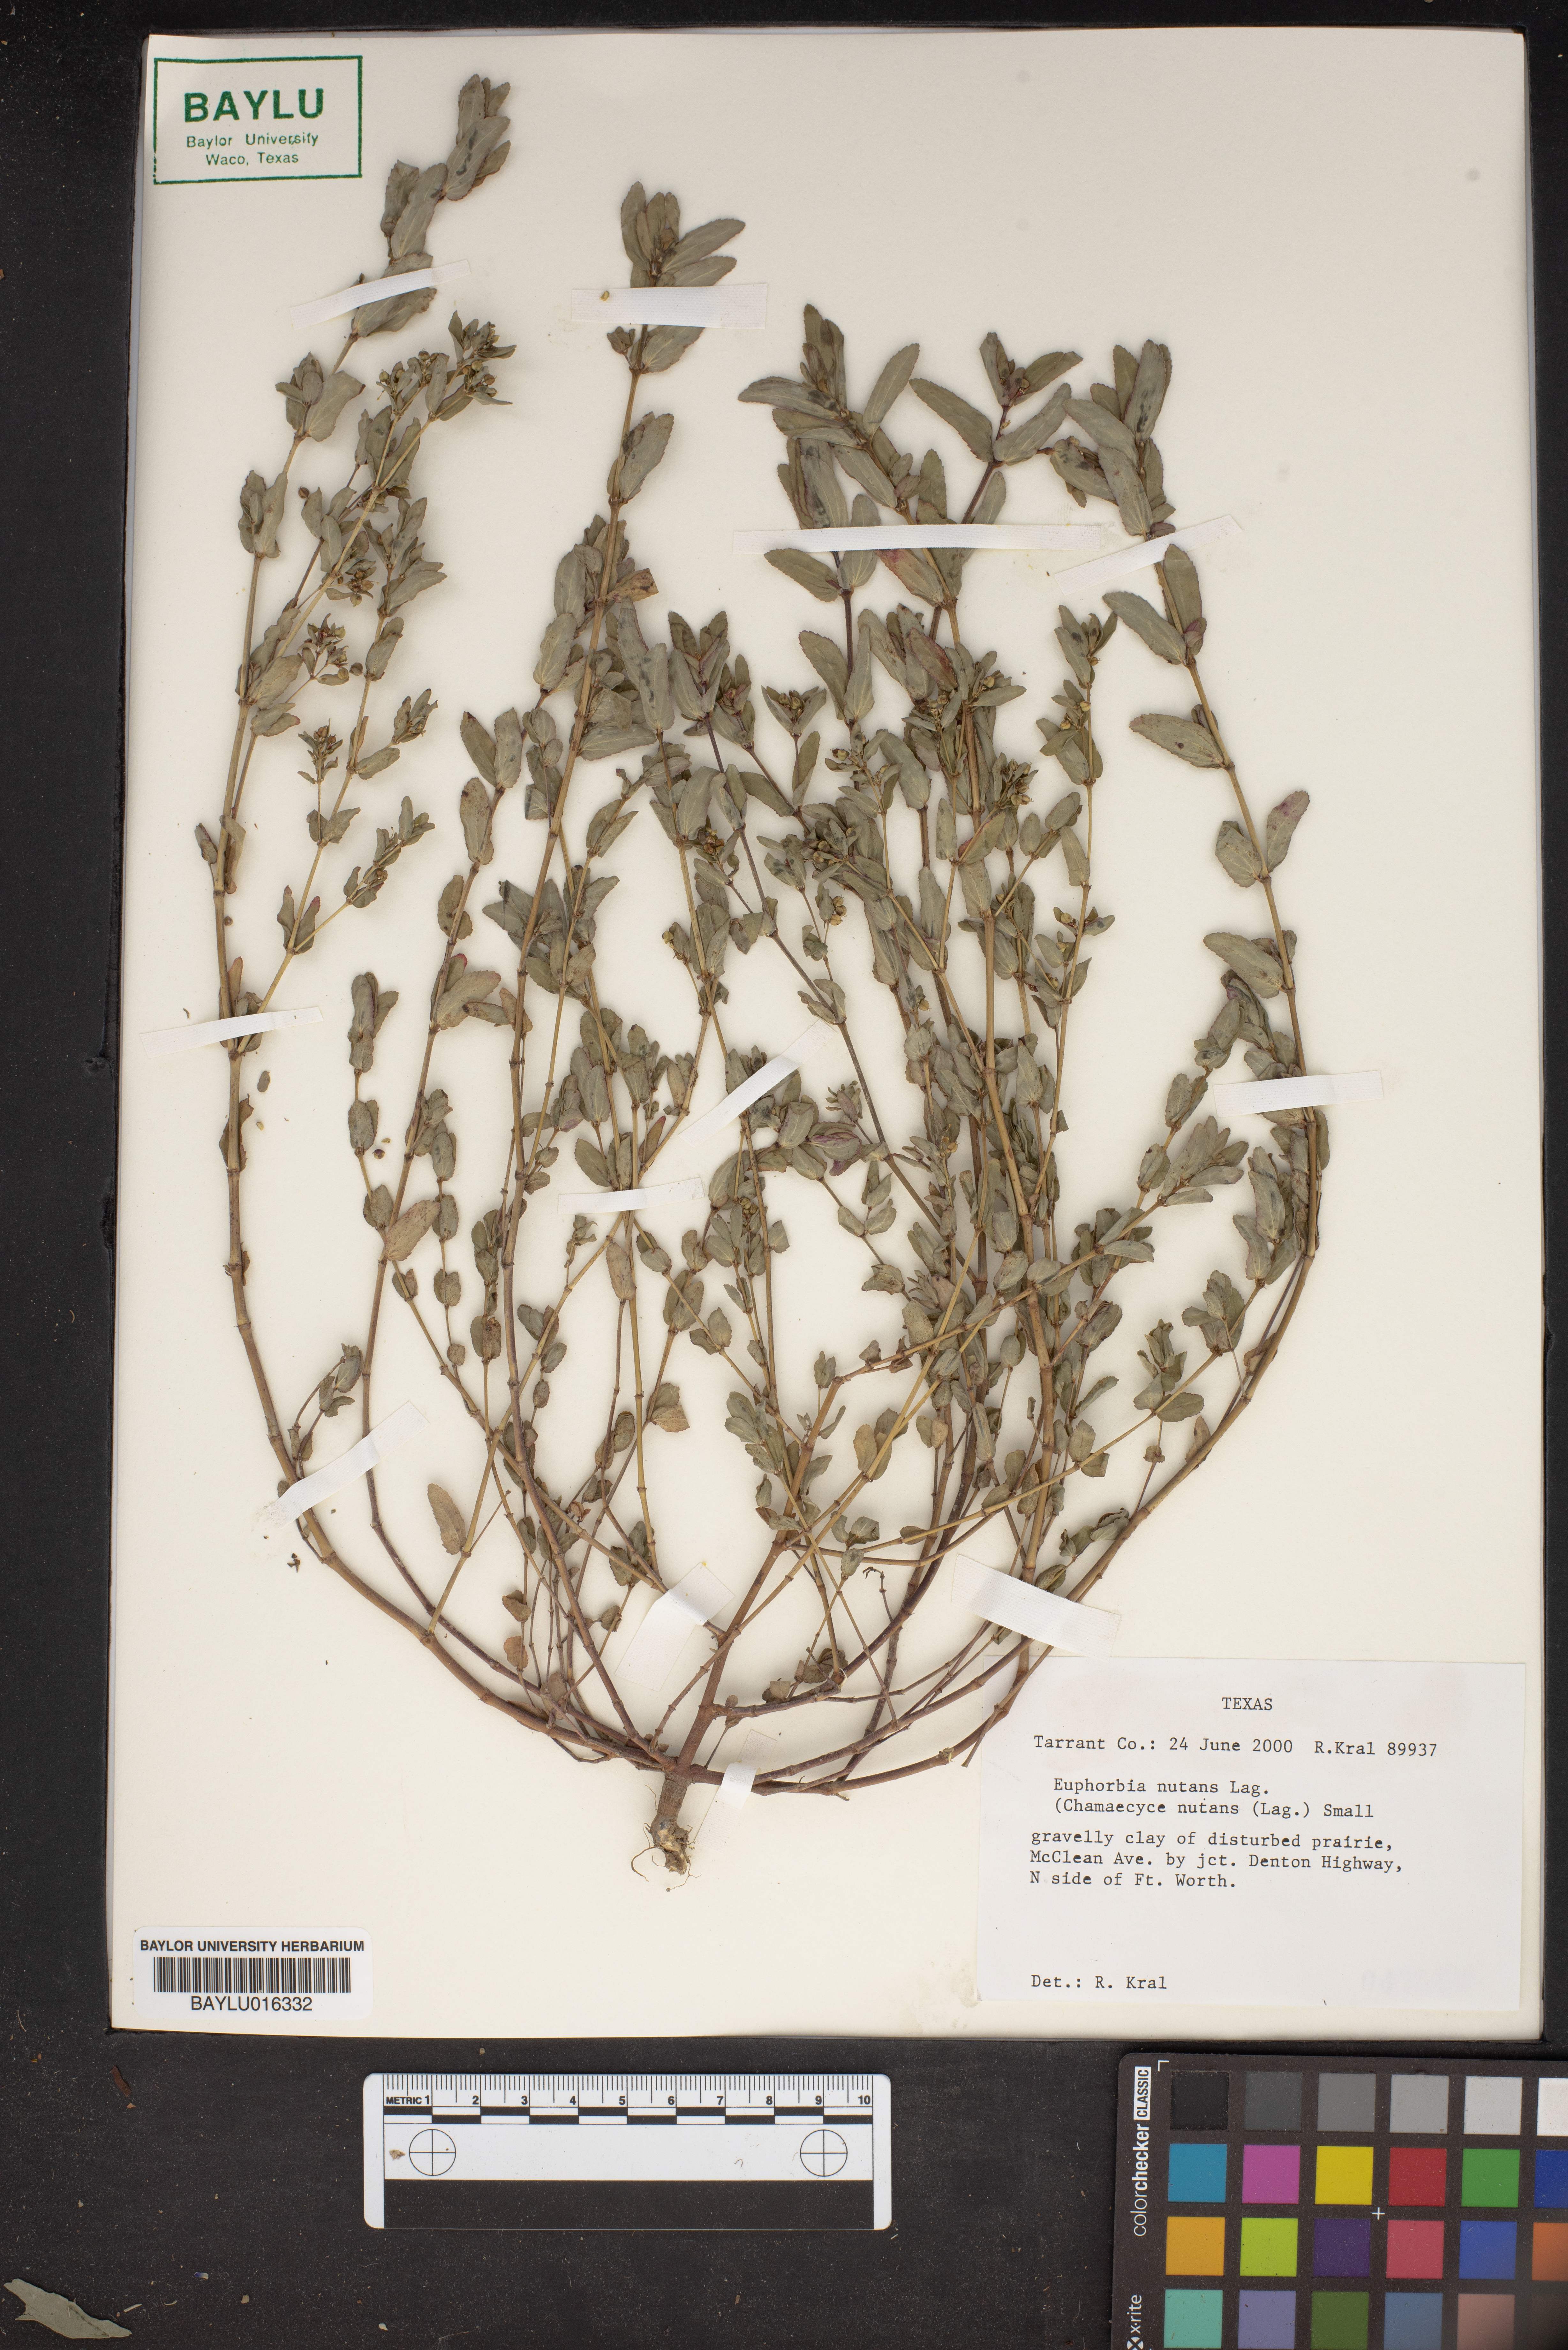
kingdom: Plantae
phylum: Tracheophyta
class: Magnoliopsida
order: Malpighiales
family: Euphorbiaceae
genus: Euphorbia
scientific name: Euphorbia nutans
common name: Eyebane
